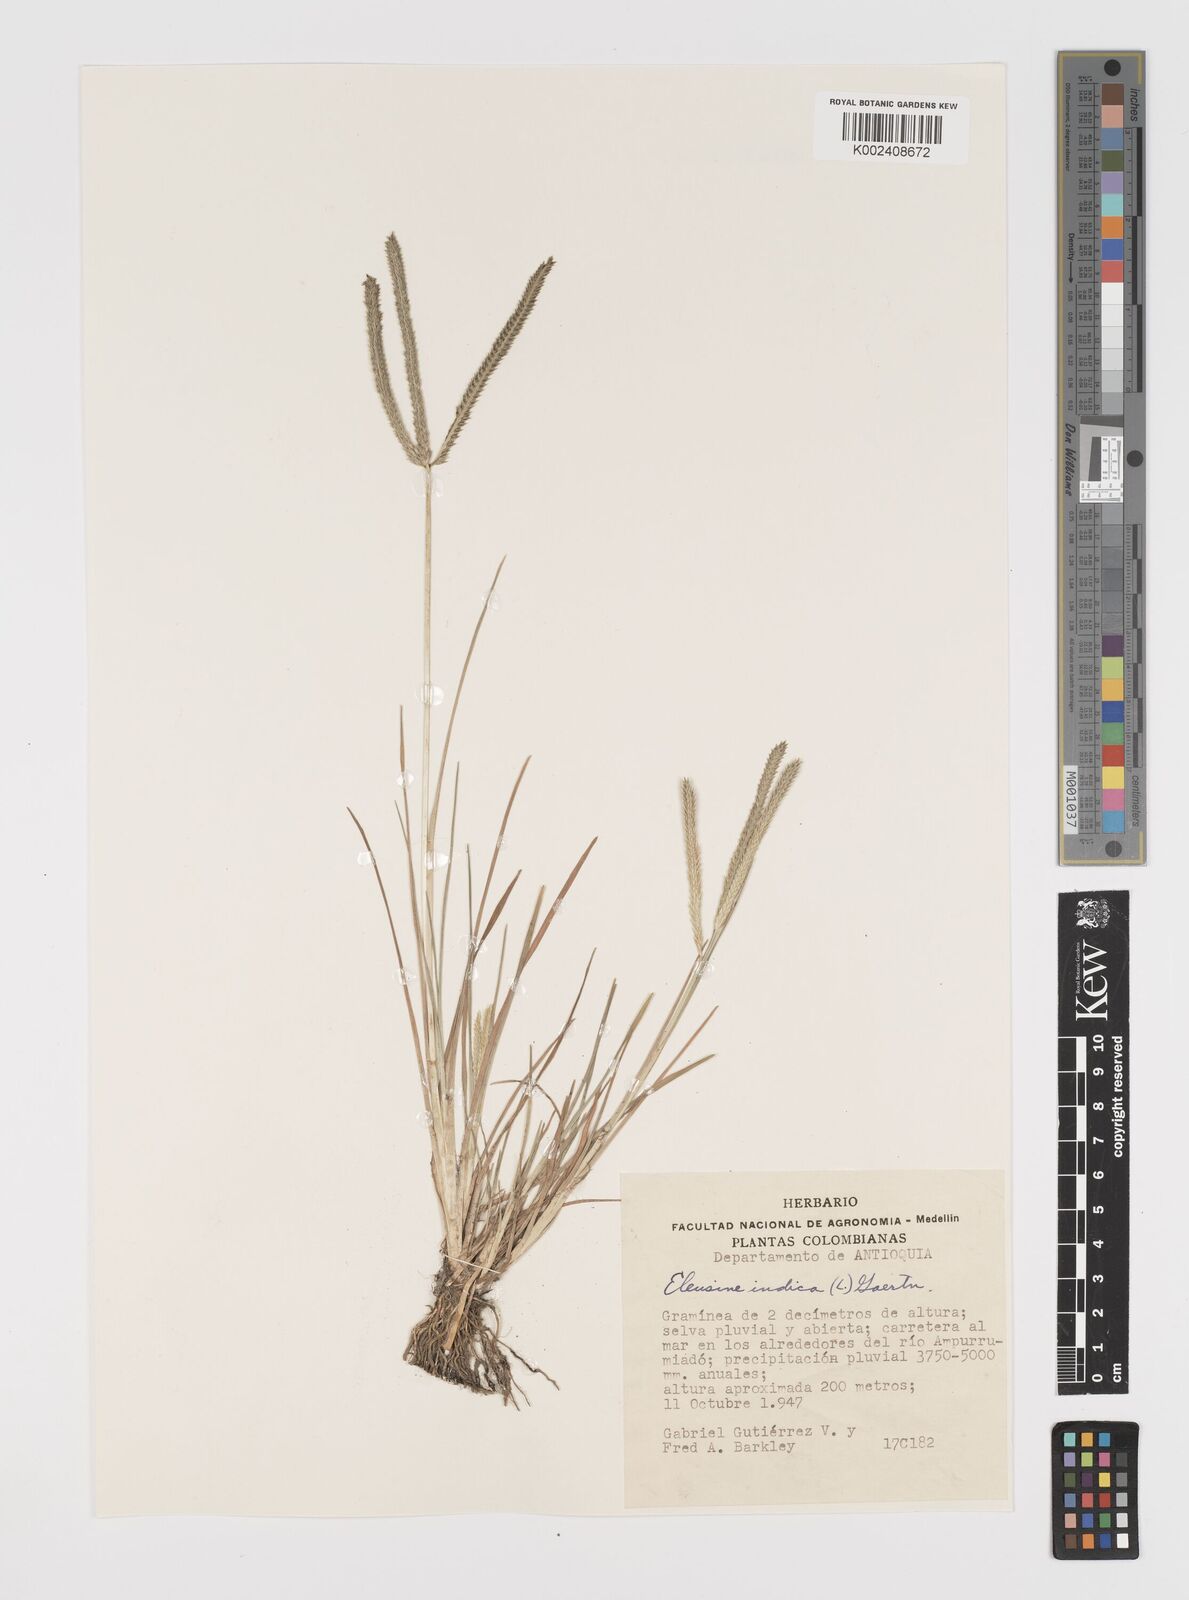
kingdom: Plantae
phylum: Tracheophyta
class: Liliopsida
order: Poales
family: Poaceae
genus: Eleusine
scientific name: Eleusine indica
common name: Yard-grass
